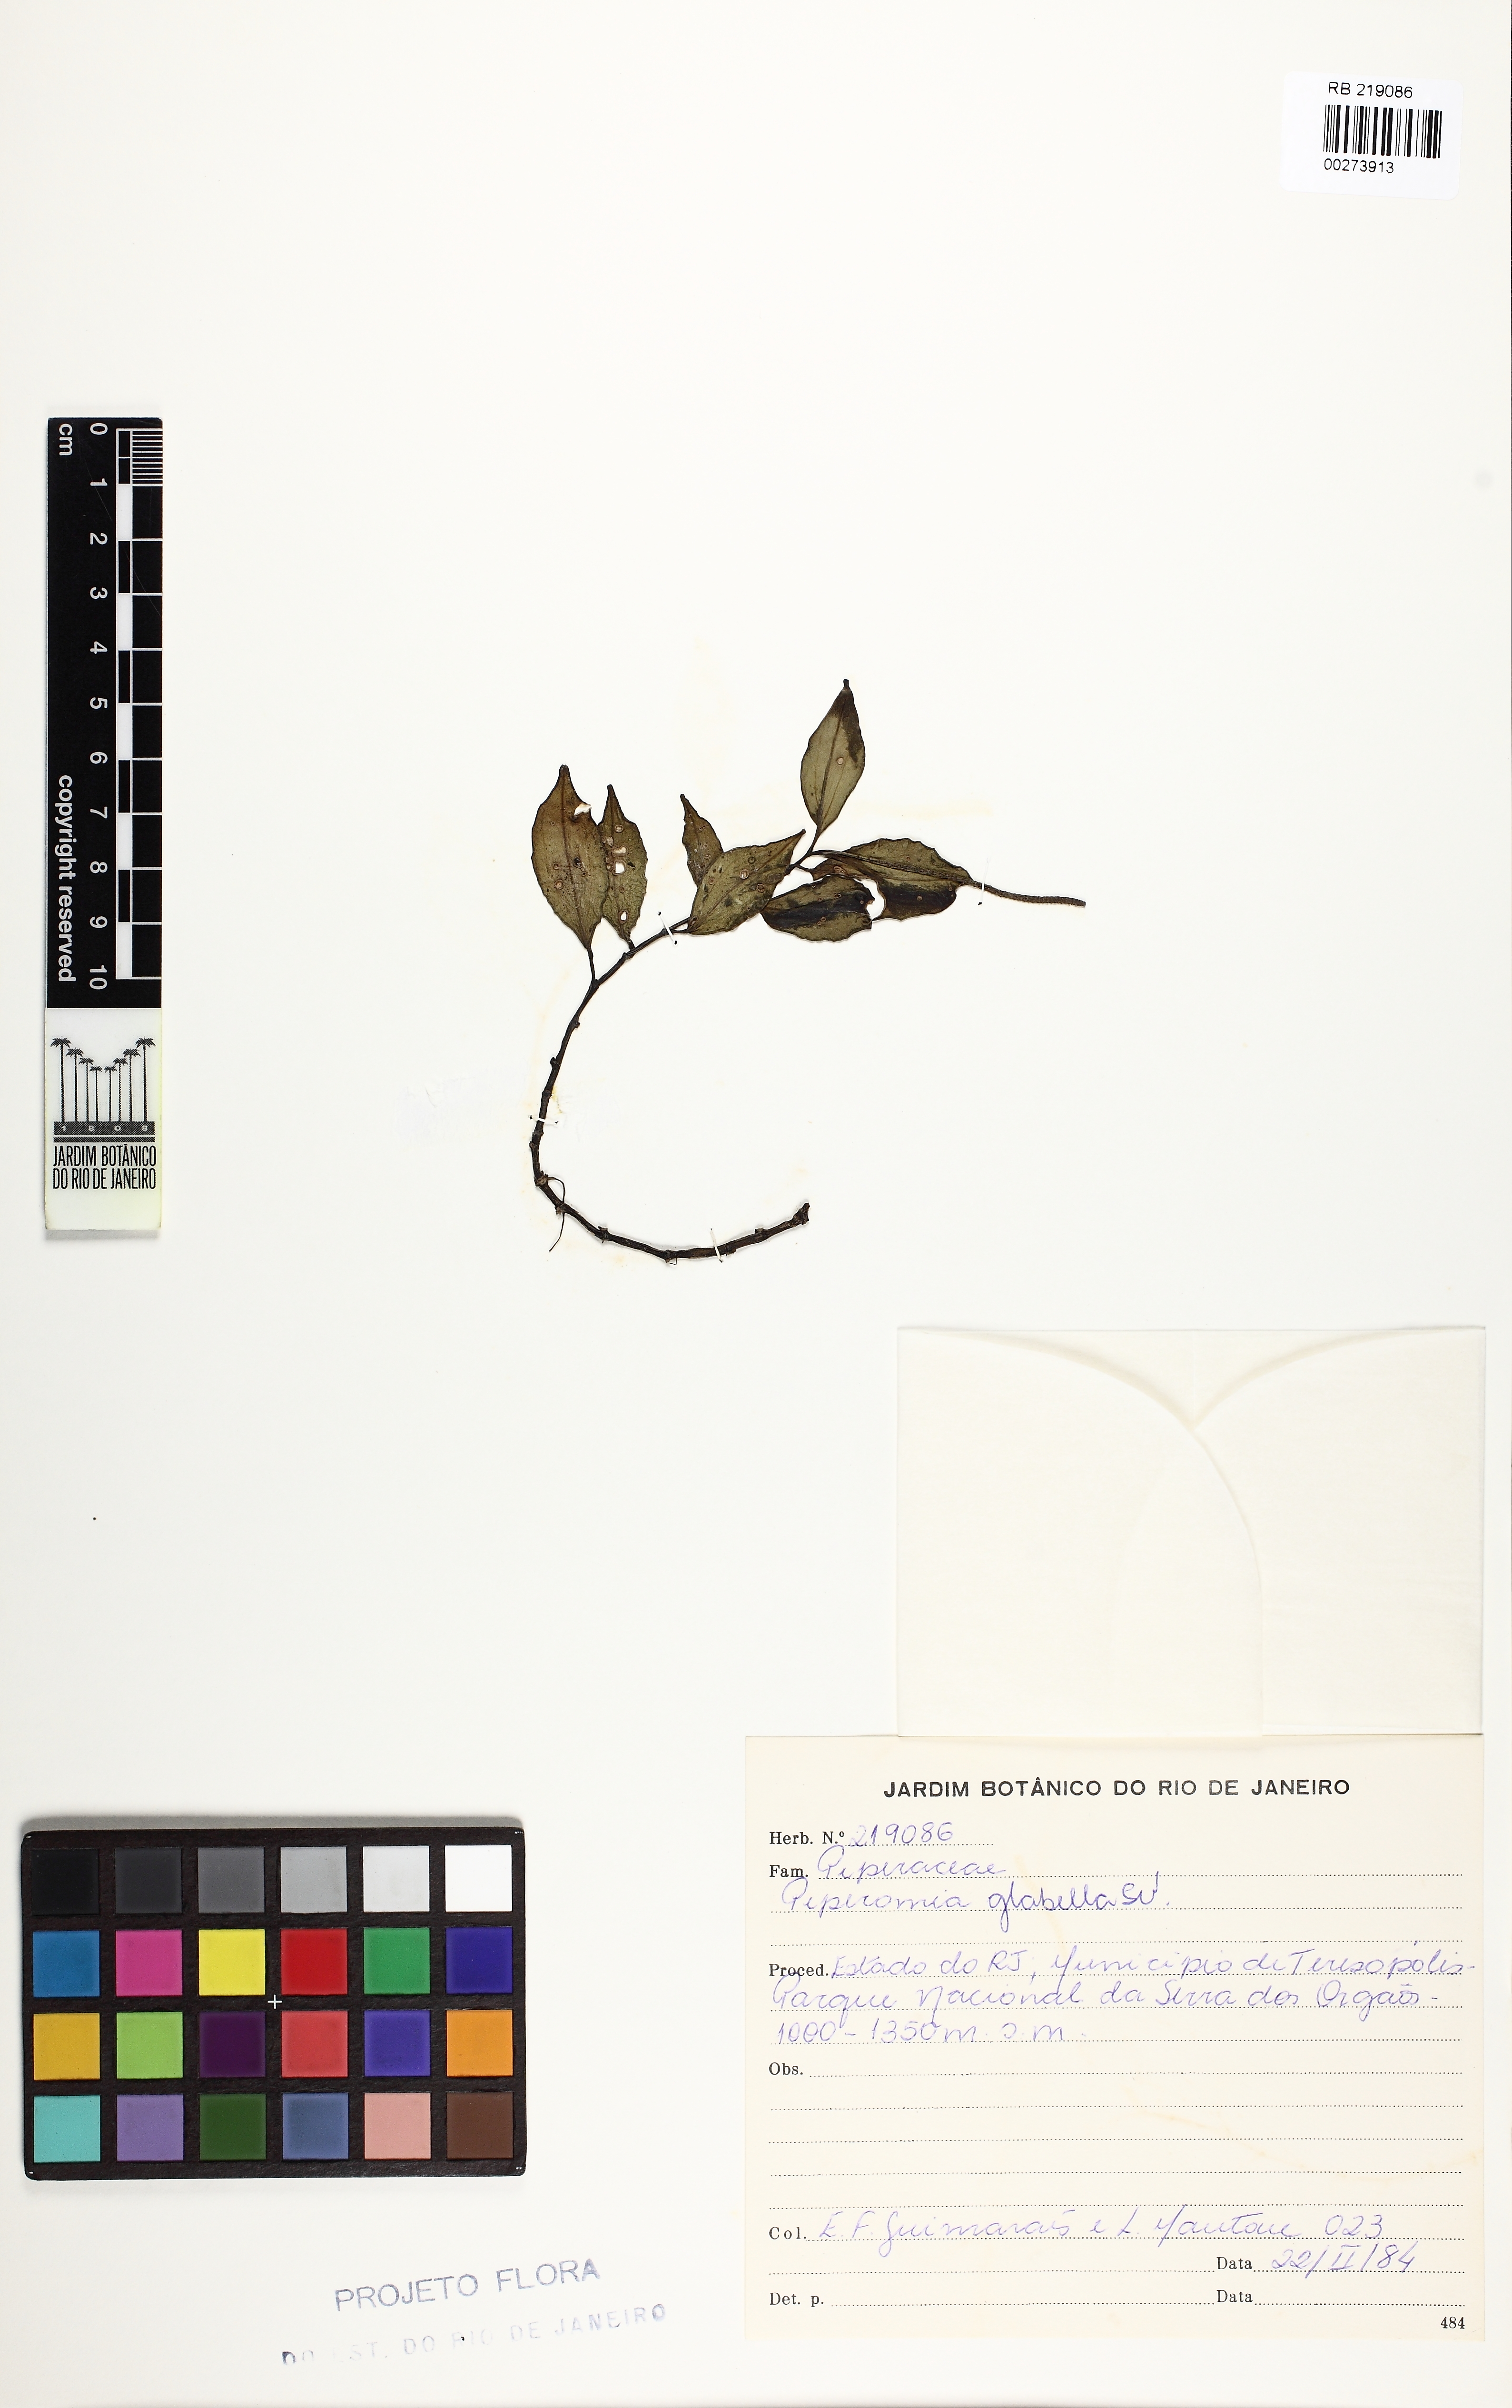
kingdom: Plantae
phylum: Tracheophyta
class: Magnoliopsida
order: Piperales
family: Piperaceae
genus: Peperomia
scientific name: Peperomia glabella
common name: Cypress peperomia
